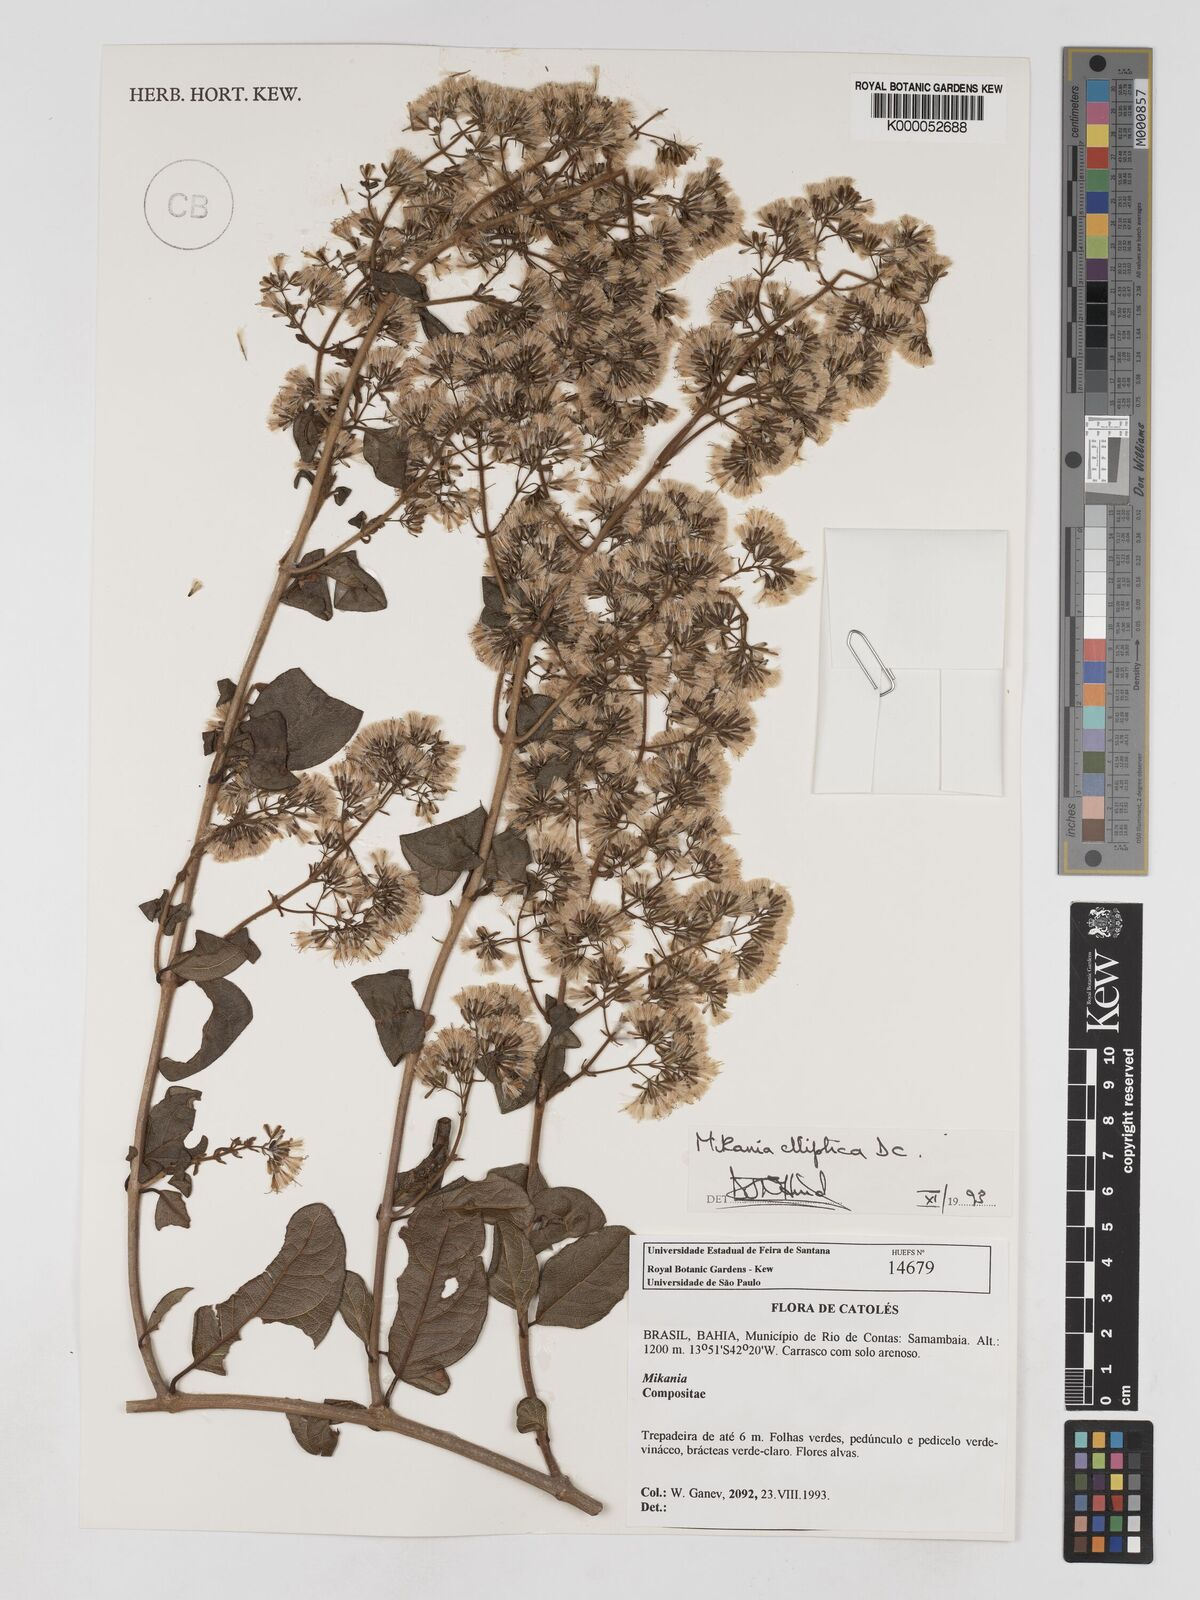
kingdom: Plantae
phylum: Tracheophyta
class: Magnoliopsida
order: Asterales
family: Asteraceae
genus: Mikania
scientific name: Mikania elliptica
